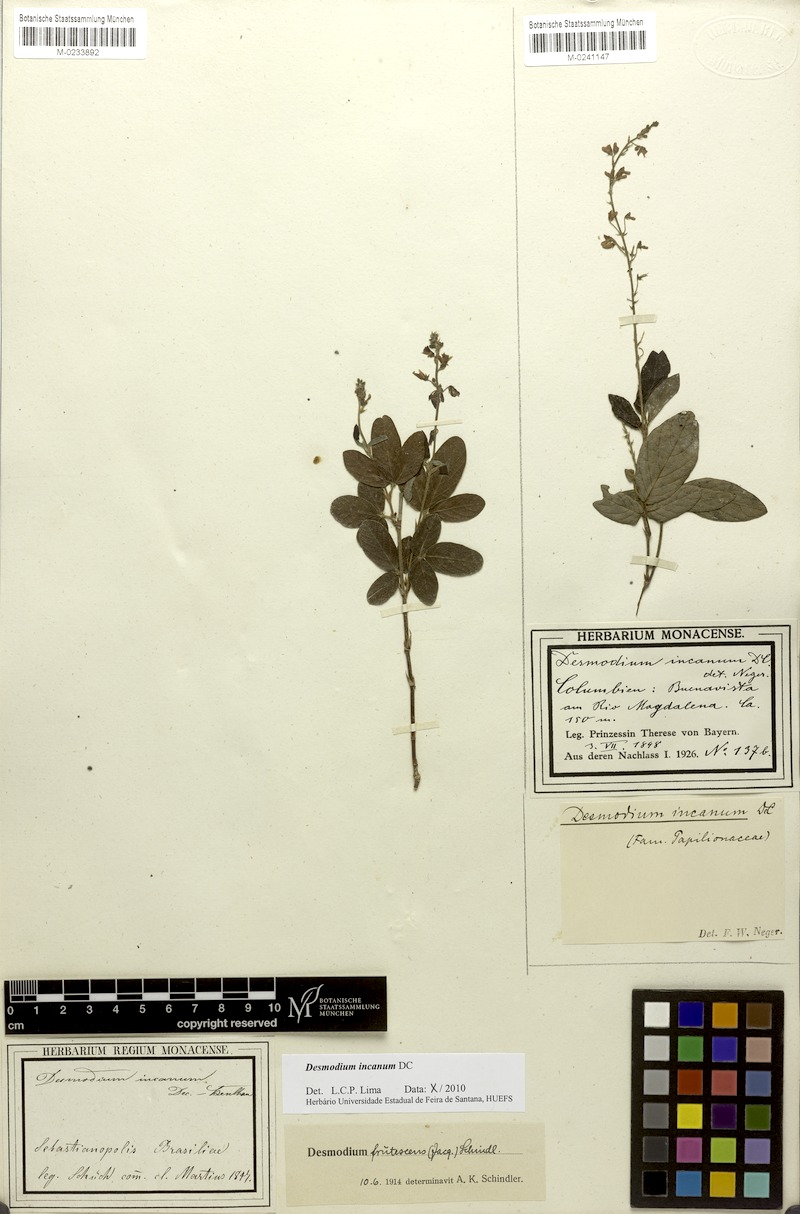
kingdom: Plantae
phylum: Tracheophyta
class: Magnoliopsida
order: Fabales
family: Fabaceae
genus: Desmodium
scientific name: Desmodium incanum
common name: Tickclover
